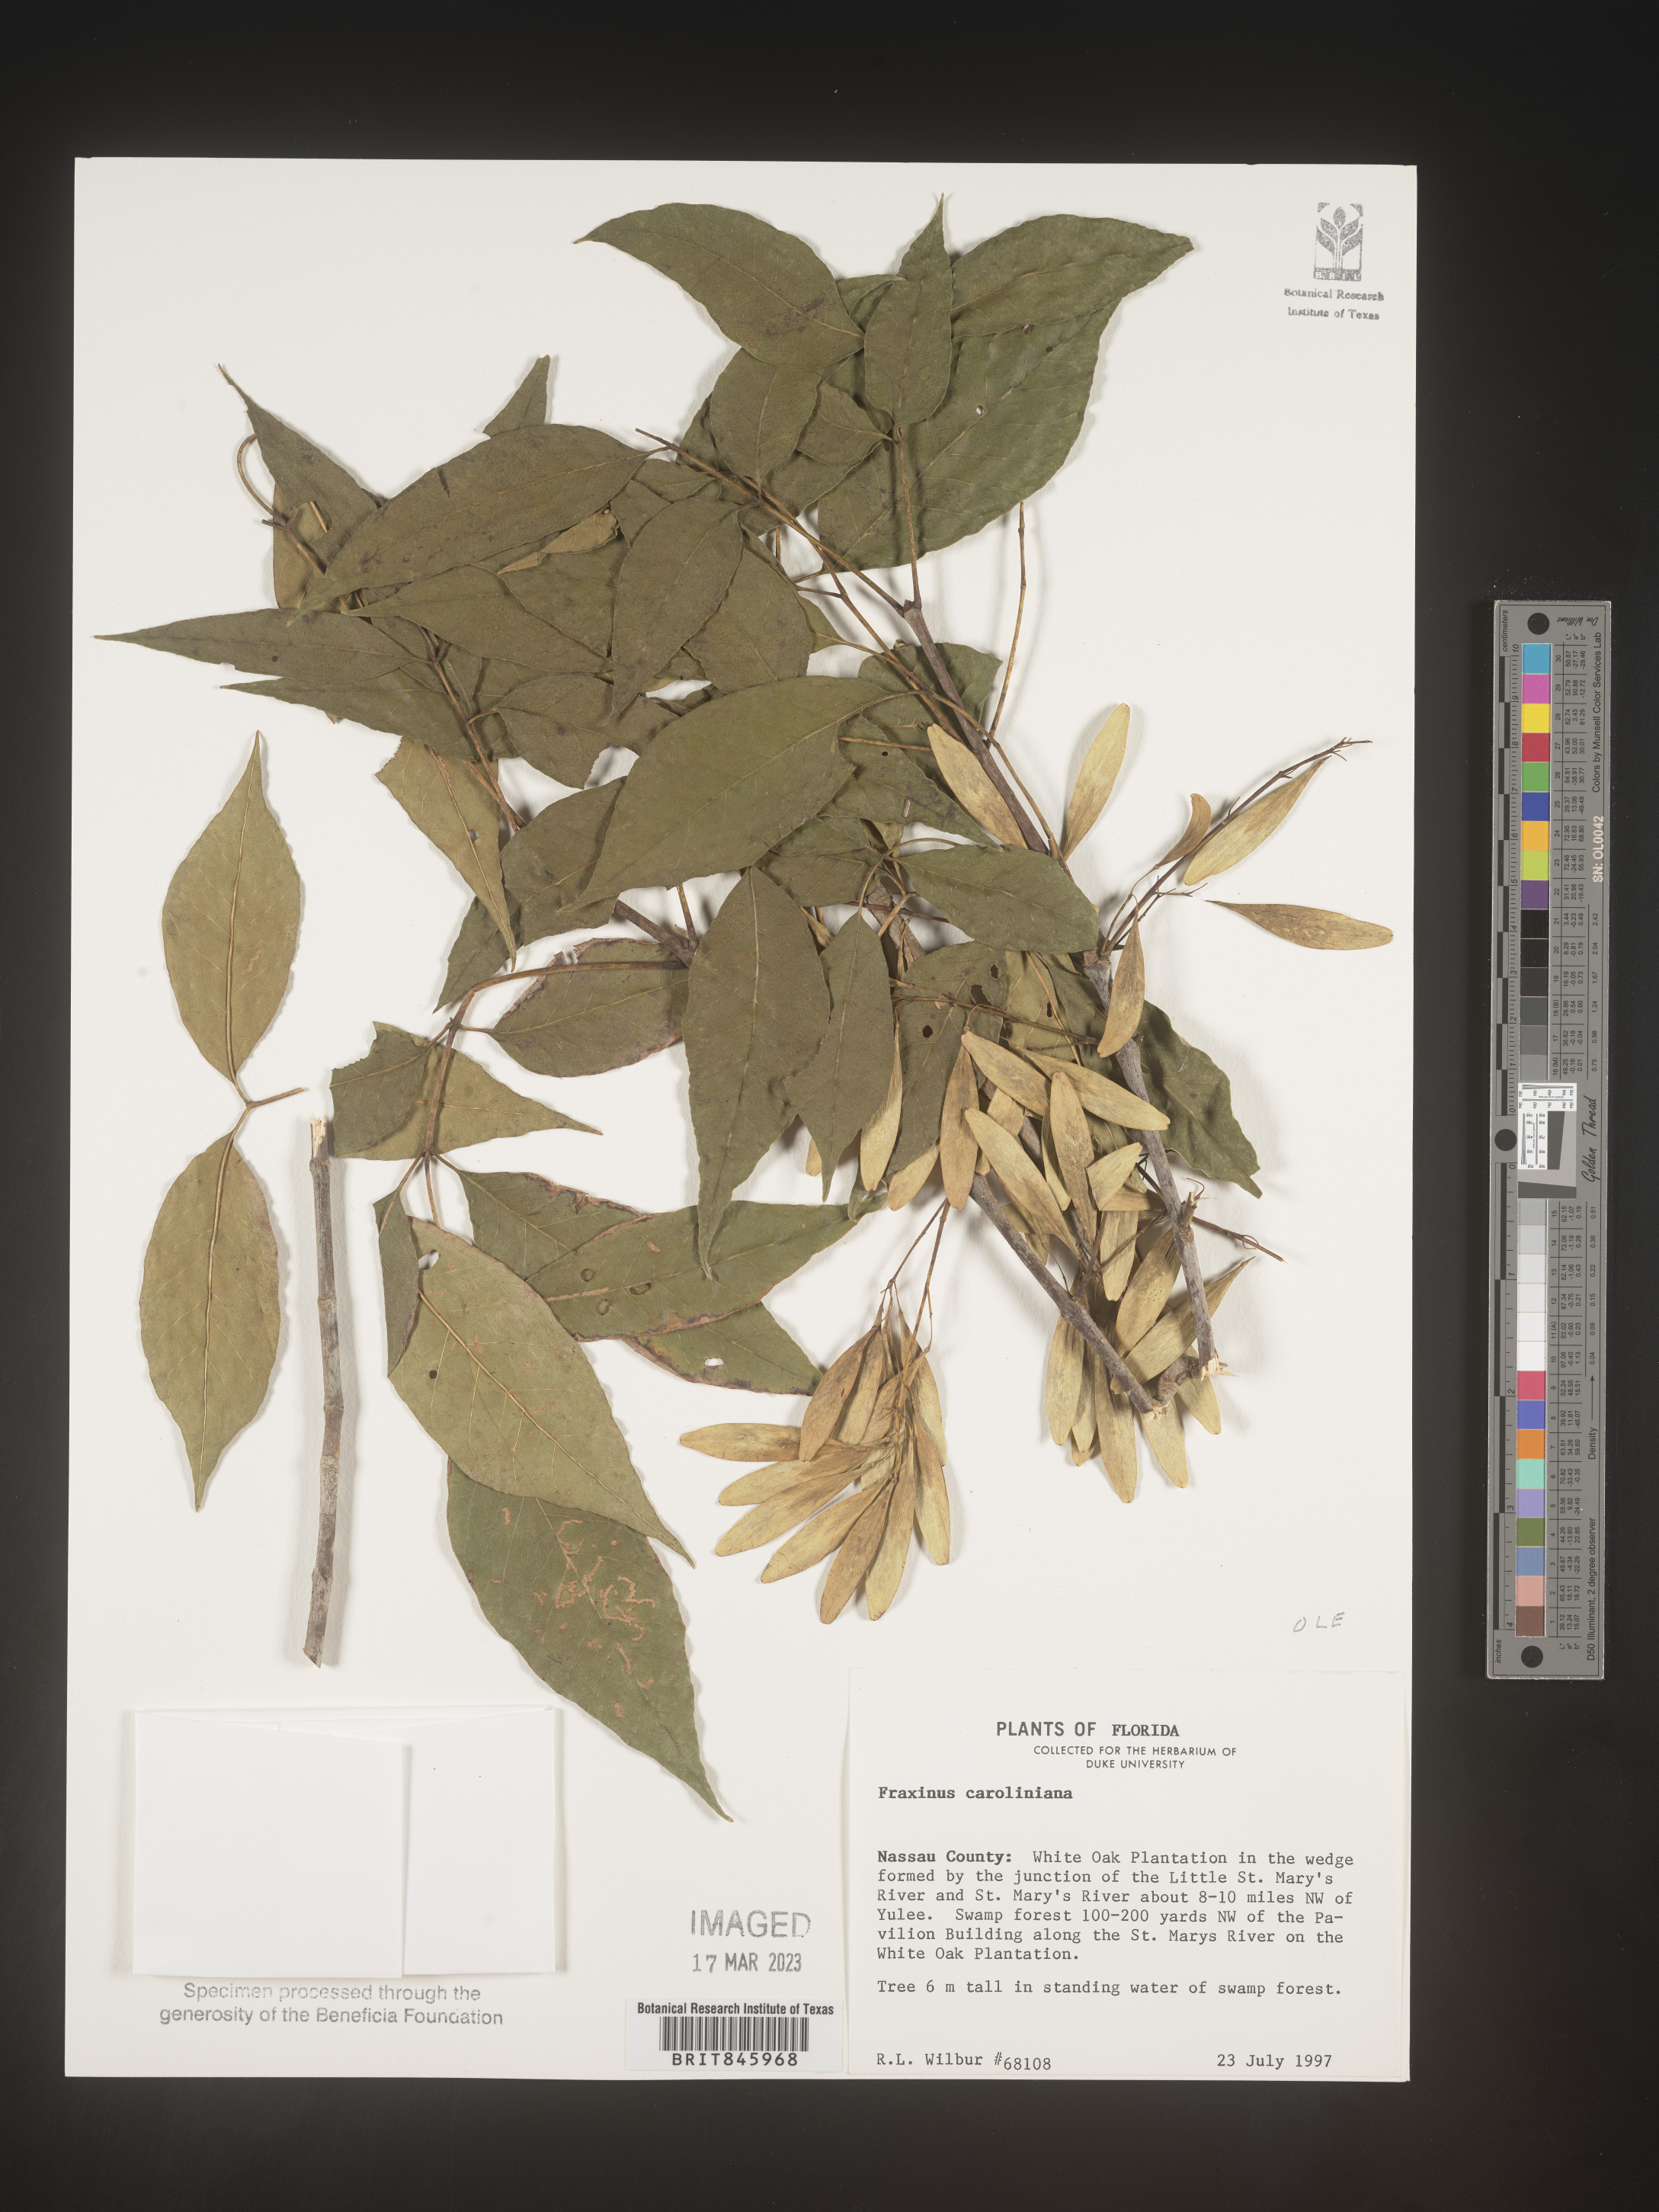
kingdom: Plantae
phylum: Tracheophyta
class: Magnoliopsida
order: Lamiales
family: Oleaceae
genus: Fraxinus
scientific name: Fraxinus caroliniana
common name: Carolina ash
